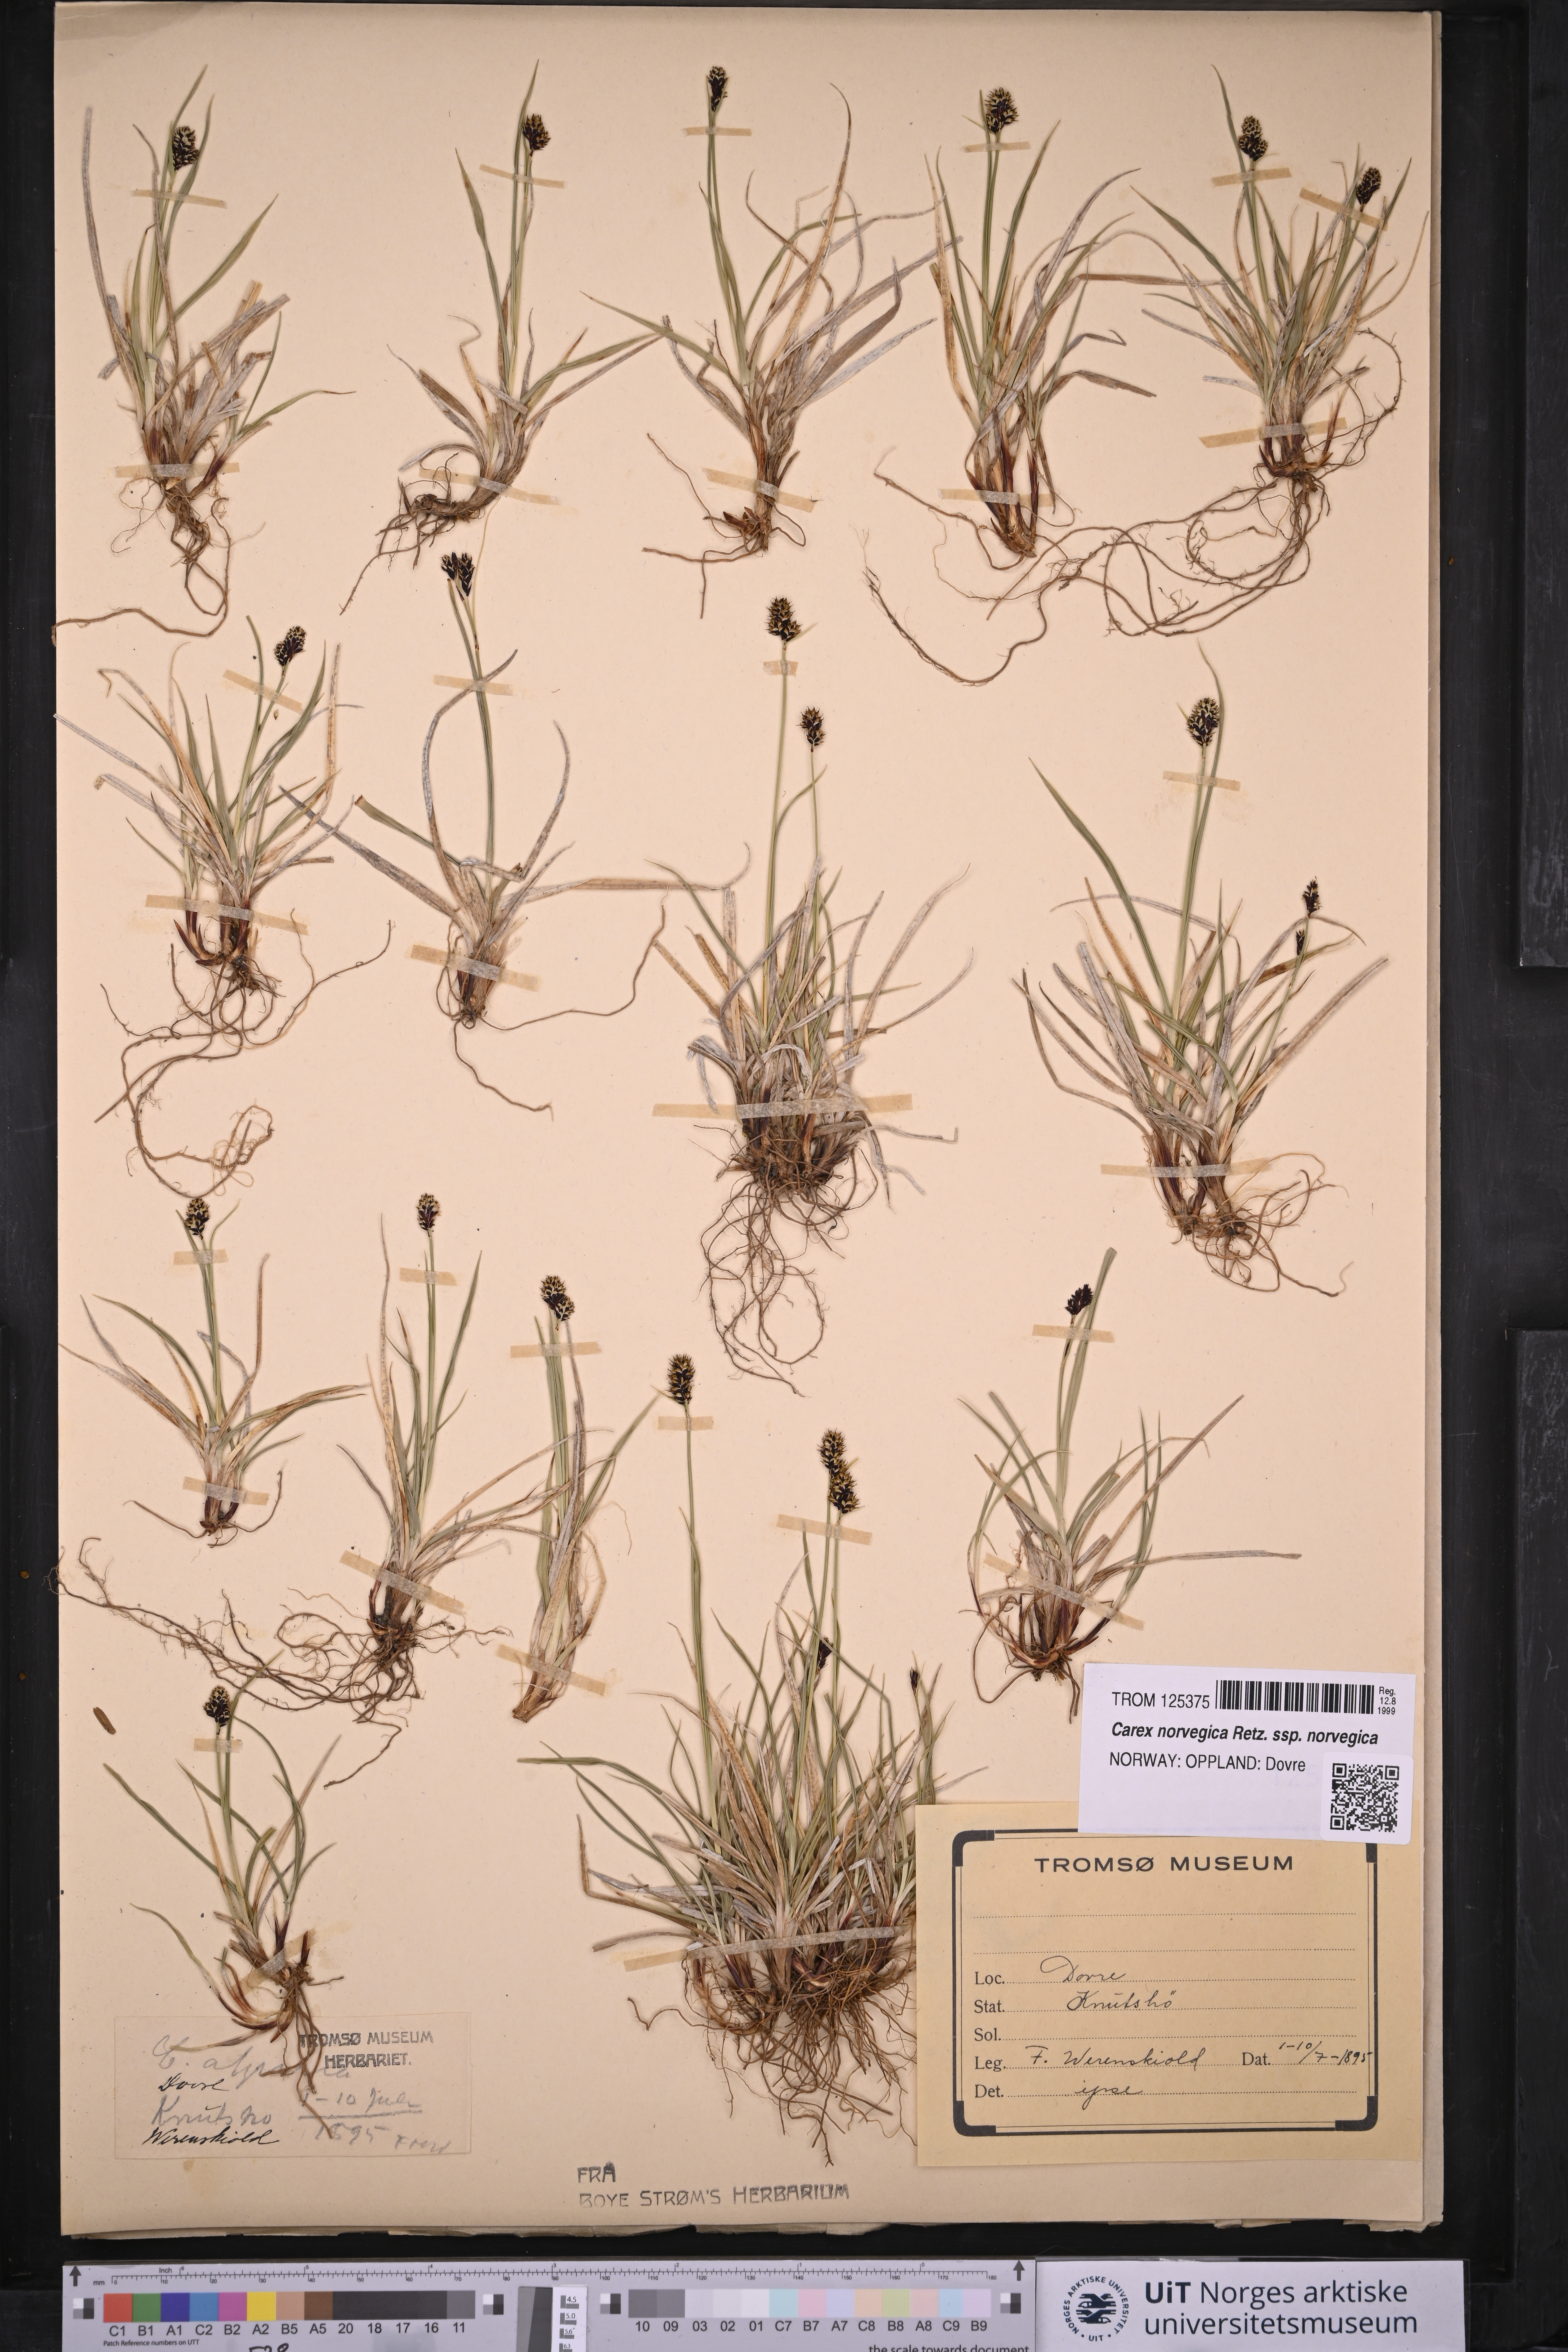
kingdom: Plantae
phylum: Tracheophyta
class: Liliopsida
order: Poales
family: Cyperaceae
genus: Carex
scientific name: Carex norvegica
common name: Close-headed alpine-sedge
